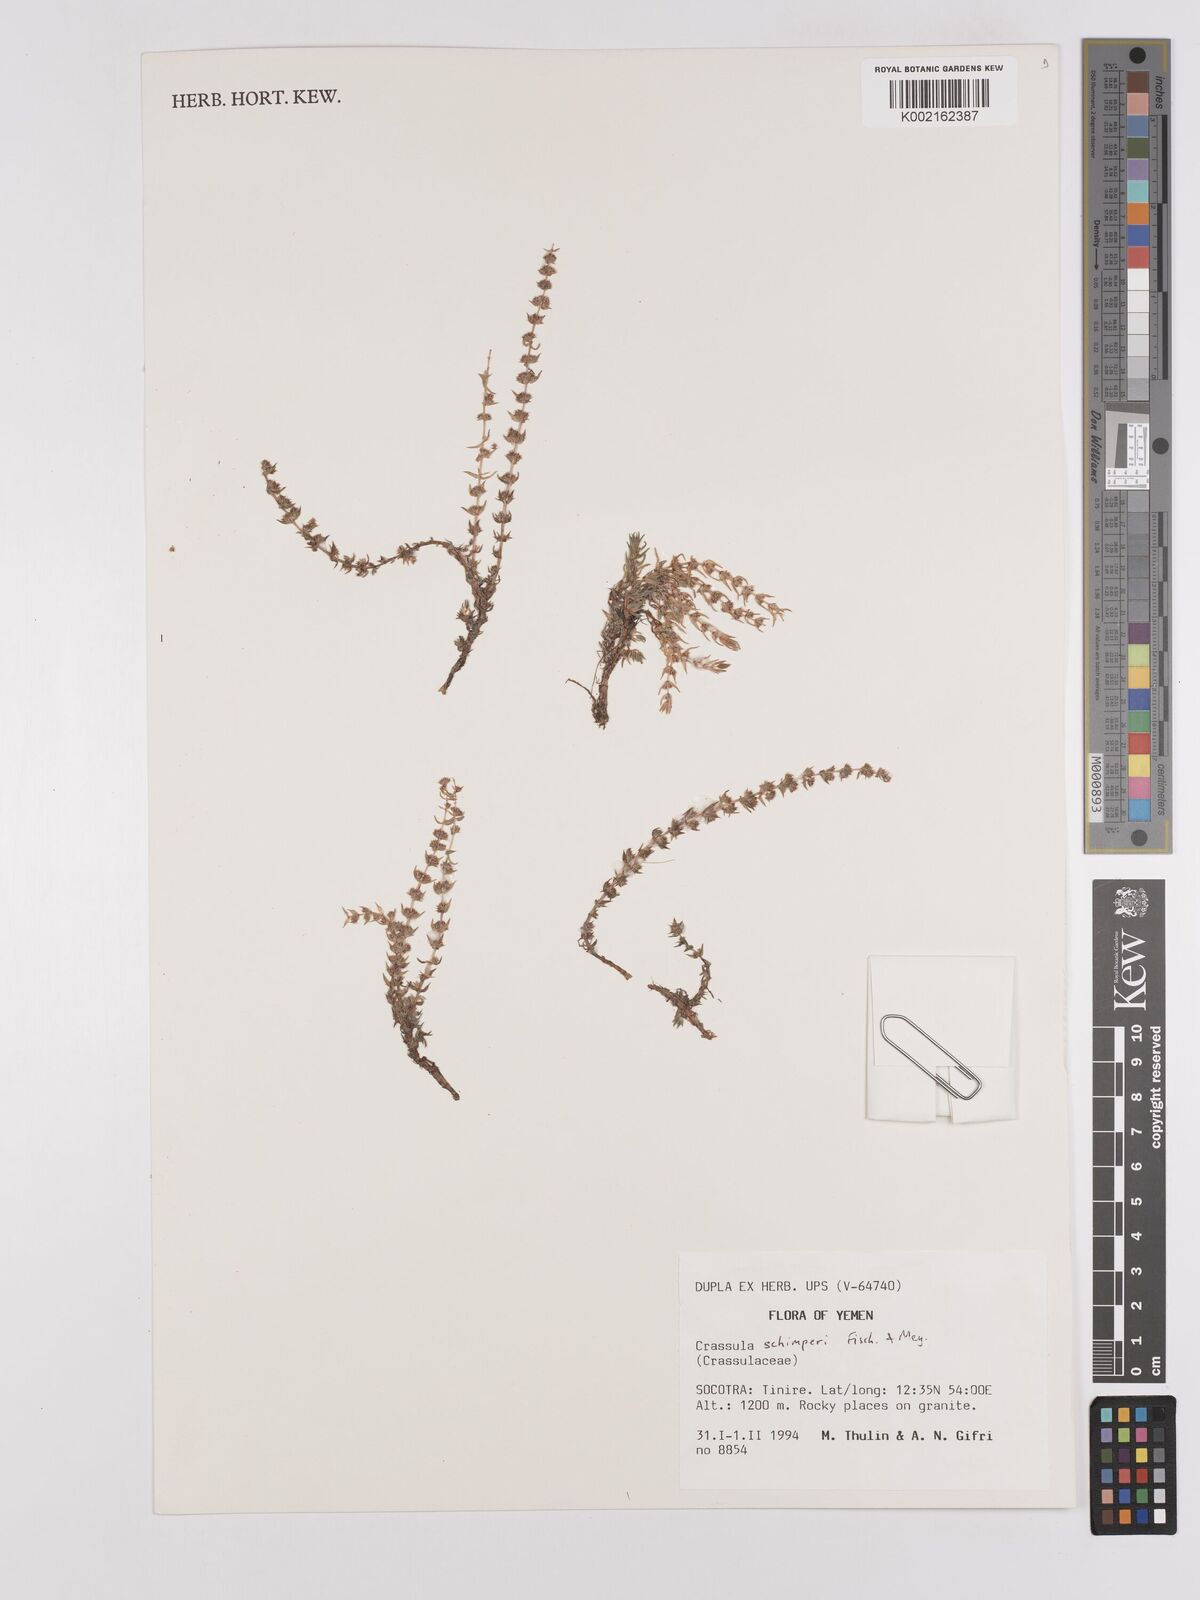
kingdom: Plantae
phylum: Tracheophyta
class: Magnoliopsida
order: Saxifragales
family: Crassulaceae
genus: Crassula
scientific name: Crassula schimperi
